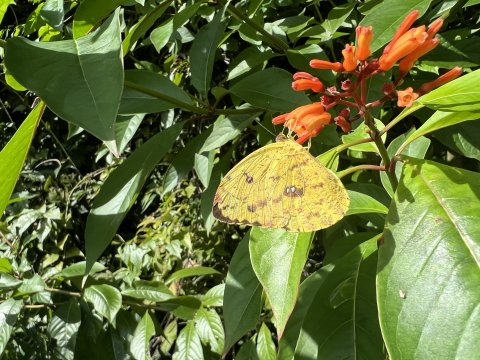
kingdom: Animalia
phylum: Arthropoda
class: Insecta
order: Lepidoptera
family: Pieridae
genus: Phoebis
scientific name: Phoebis argante
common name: Apricot Sulphur
